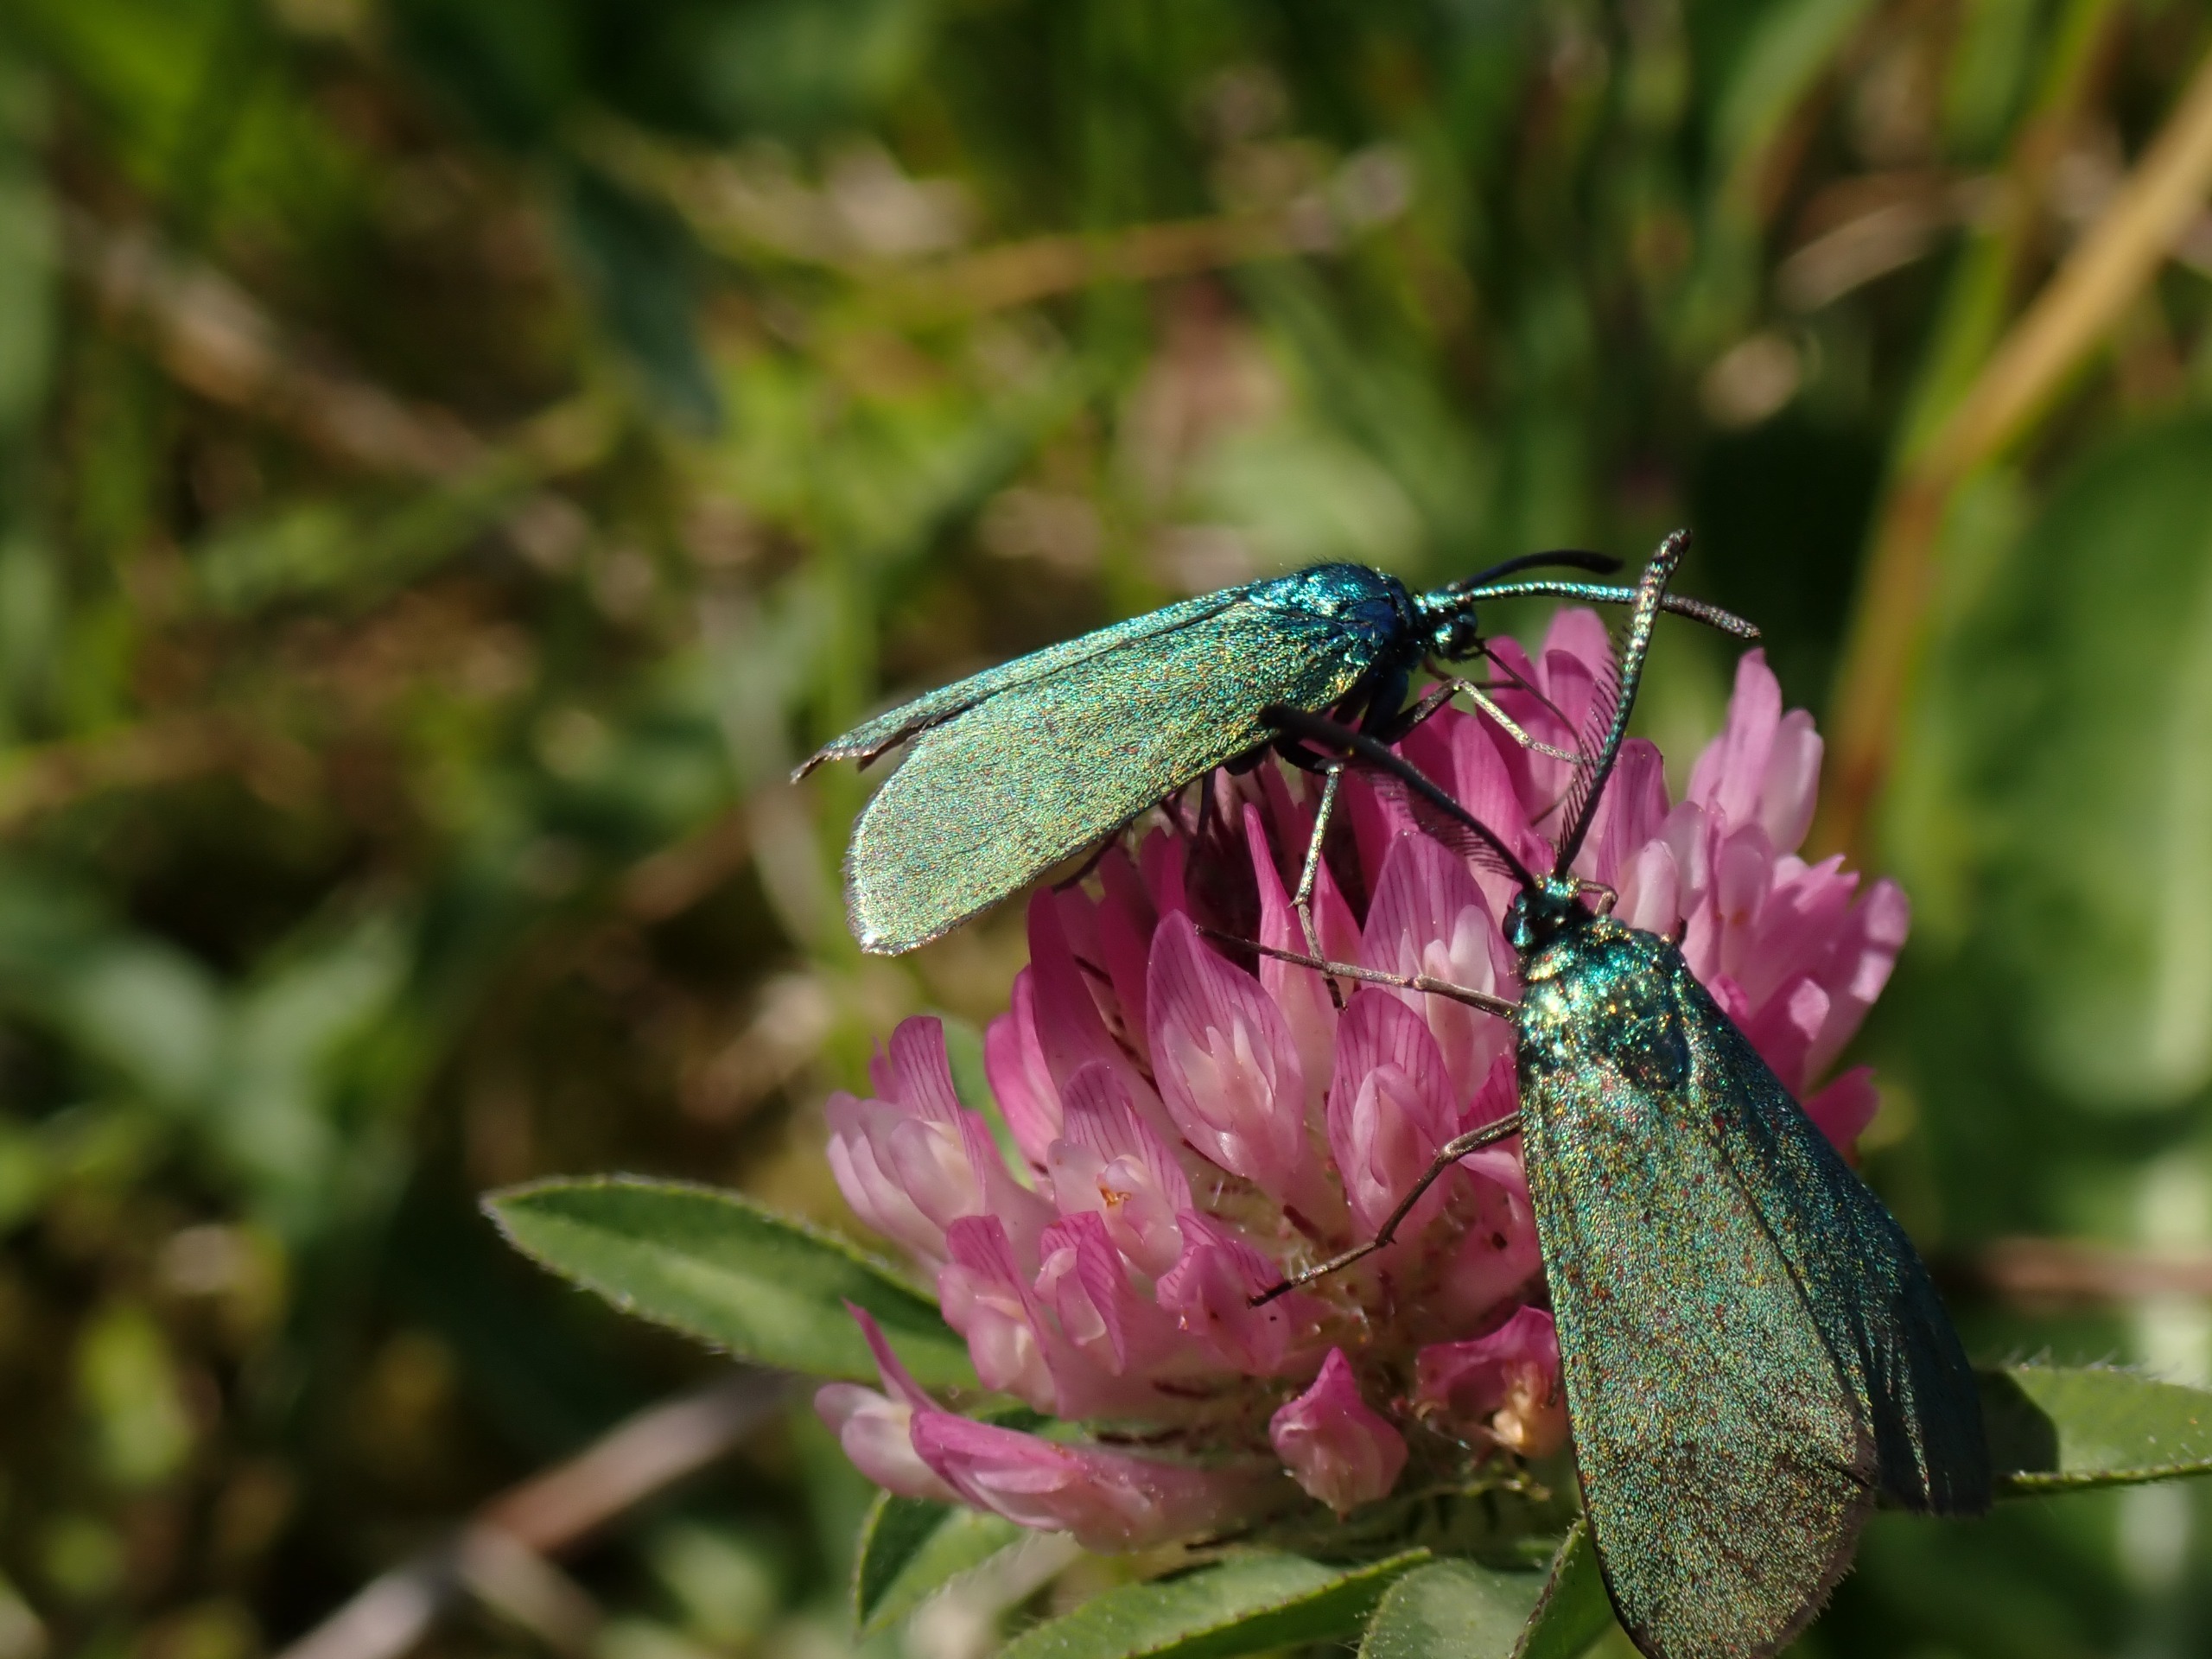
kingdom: Animalia
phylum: Arthropoda
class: Insecta
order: Lepidoptera
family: Zygaenidae
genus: Adscita
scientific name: Adscita statices
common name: Metalvinge
